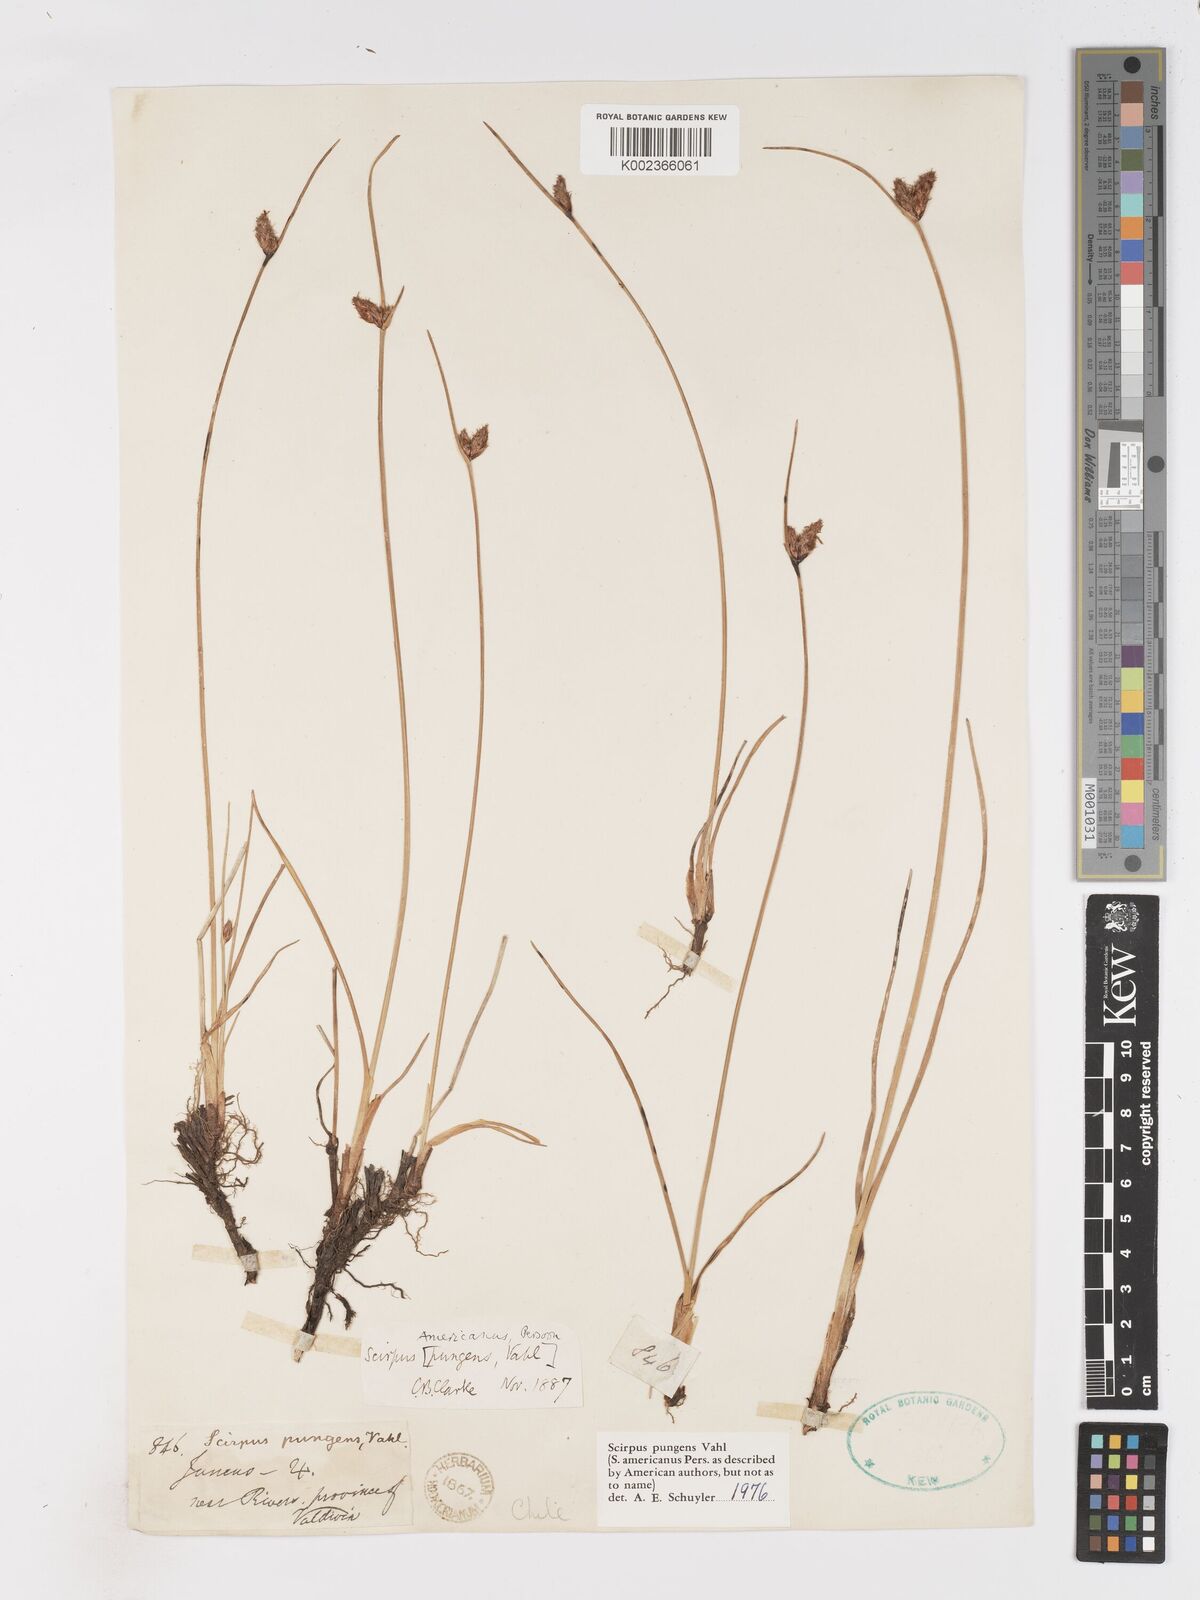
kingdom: Plantae
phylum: Tracheophyta
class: Liliopsida
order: Poales
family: Cyperaceae
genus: Schoenoplectus
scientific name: Schoenoplectus pungens
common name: Sharp club-rush
